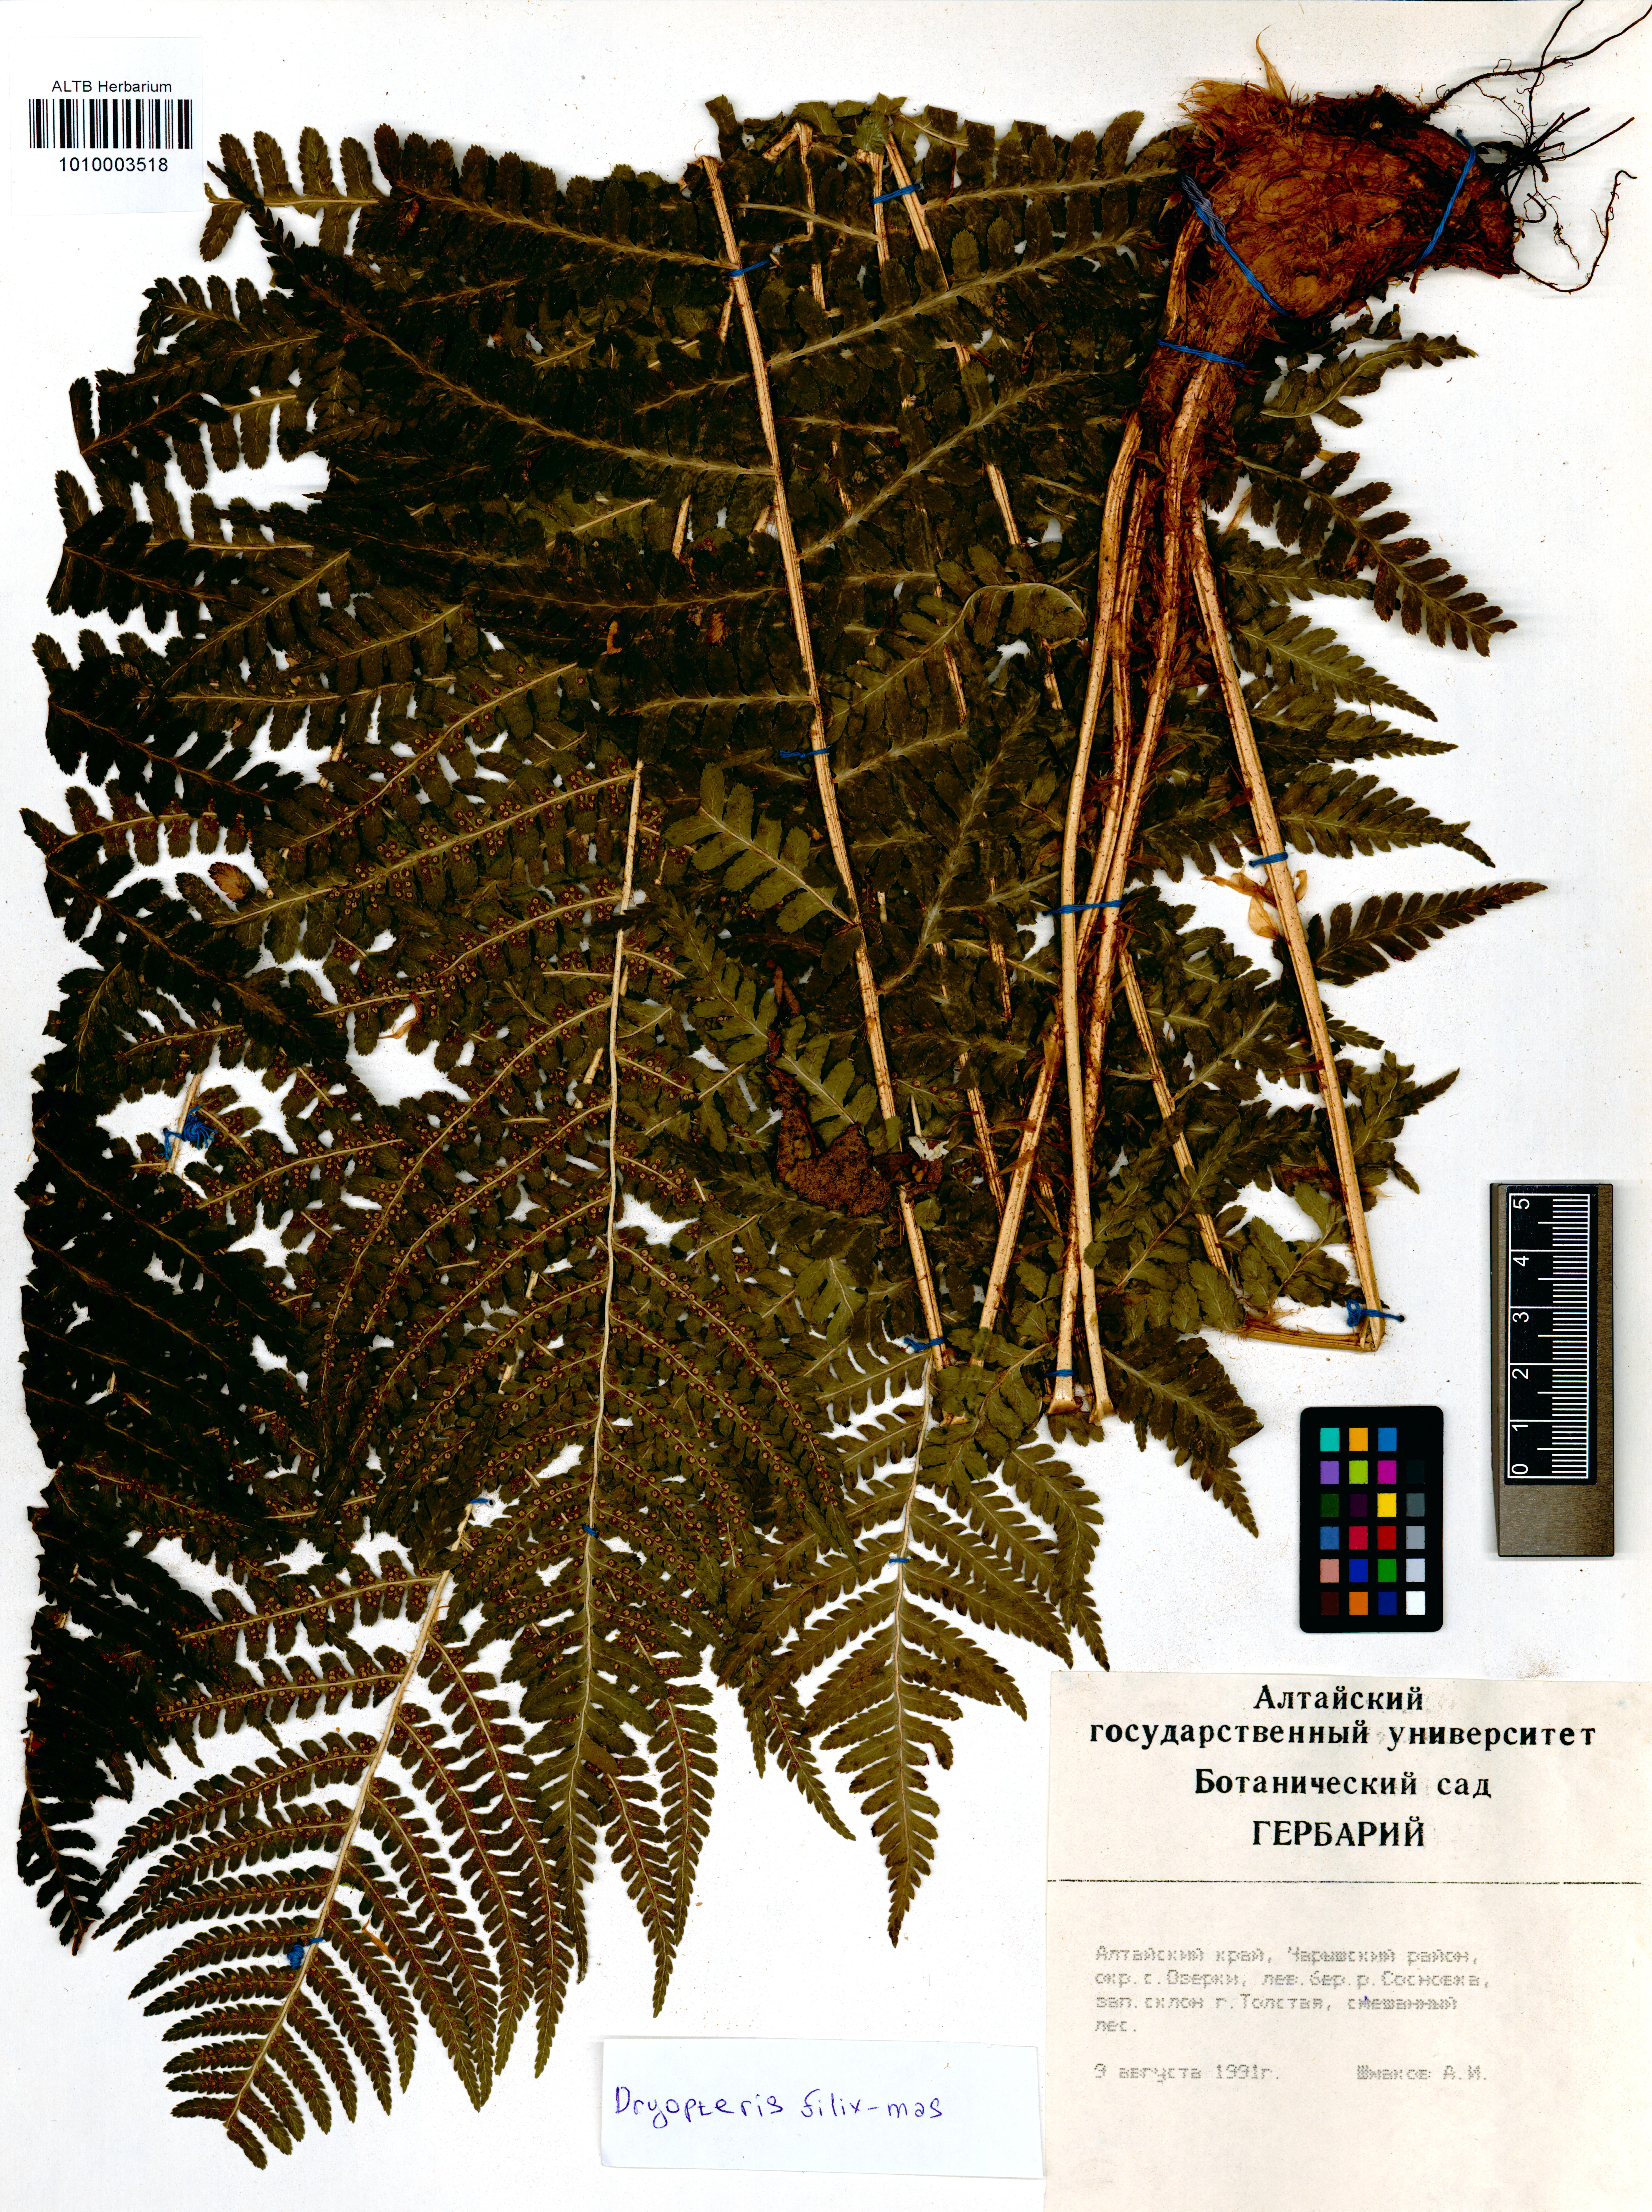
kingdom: Plantae
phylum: Tracheophyta
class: Polypodiopsida
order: Polypodiales
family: Dryopteridaceae
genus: Dryopteris
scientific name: Dryopteris filix-mas
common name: Male fern
